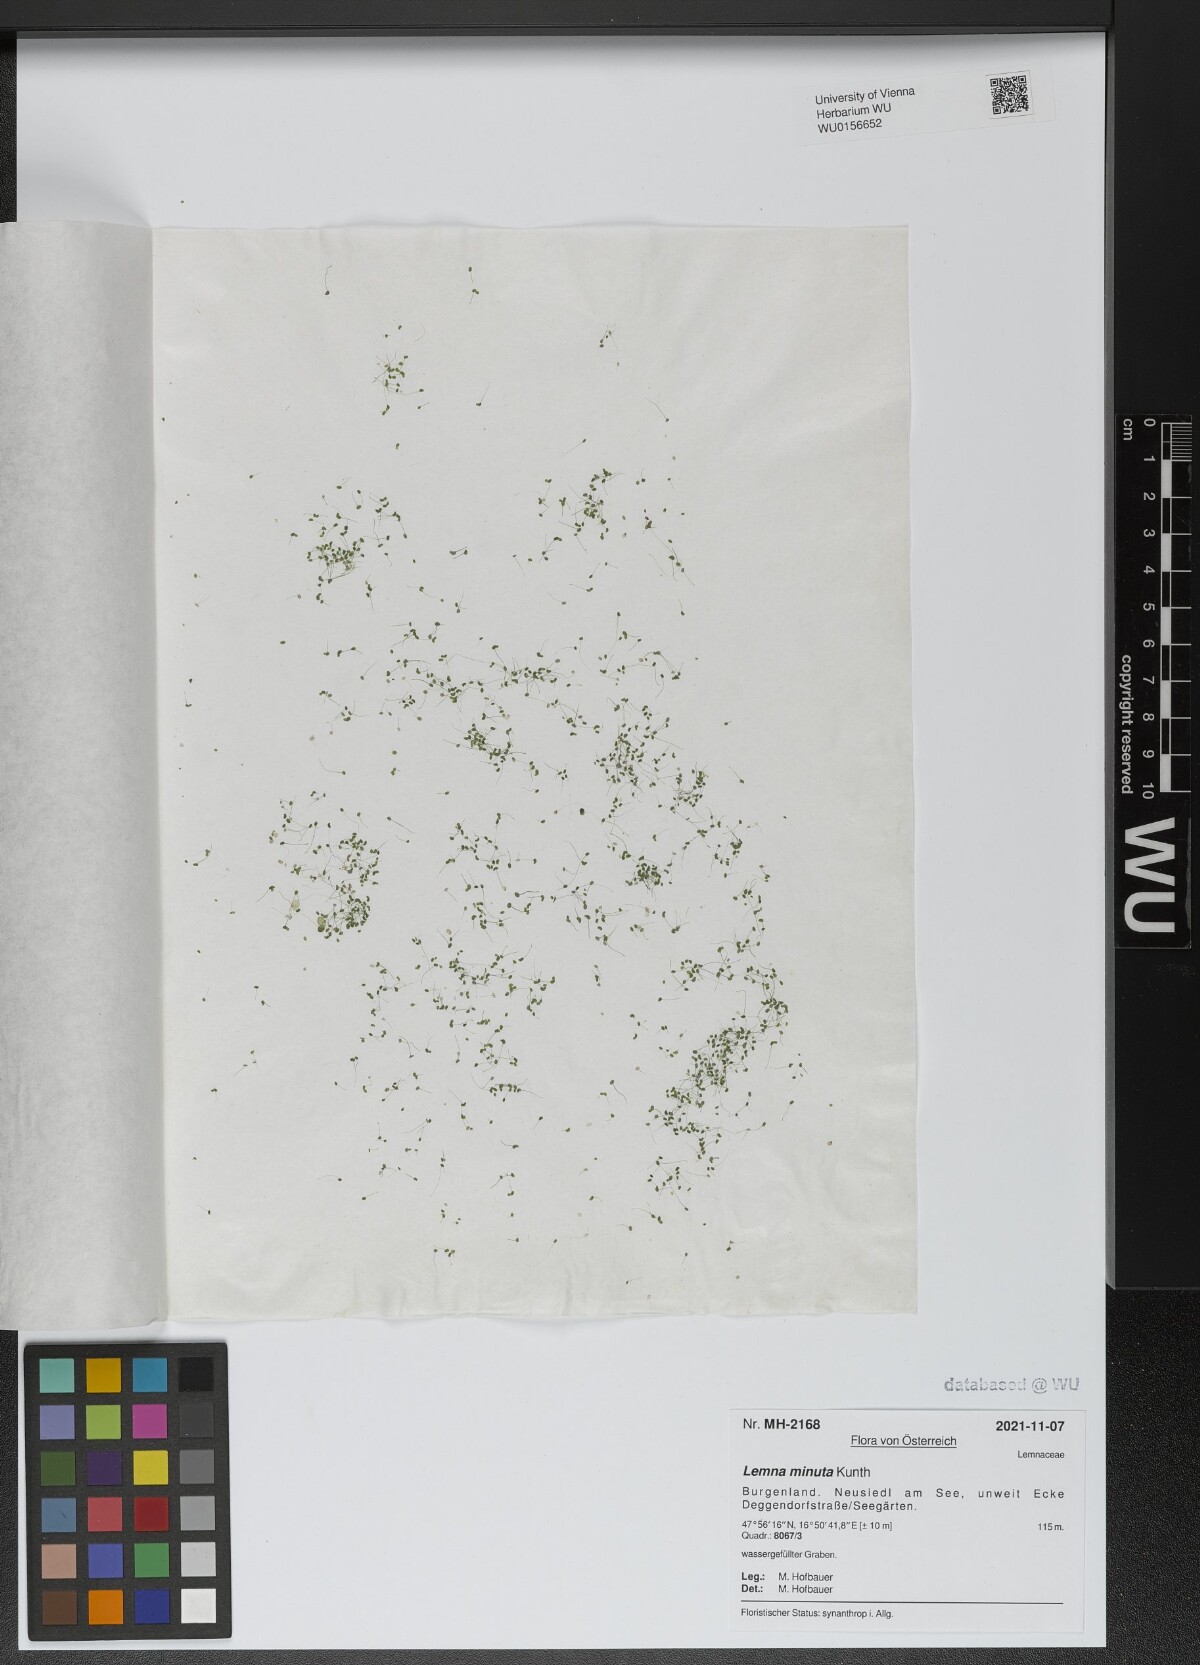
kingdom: Plantae
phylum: Tracheophyta
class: Liliopsida
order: Alismatales
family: Araceae
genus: Lemna
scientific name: Lemna minuta
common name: Least duckweed
